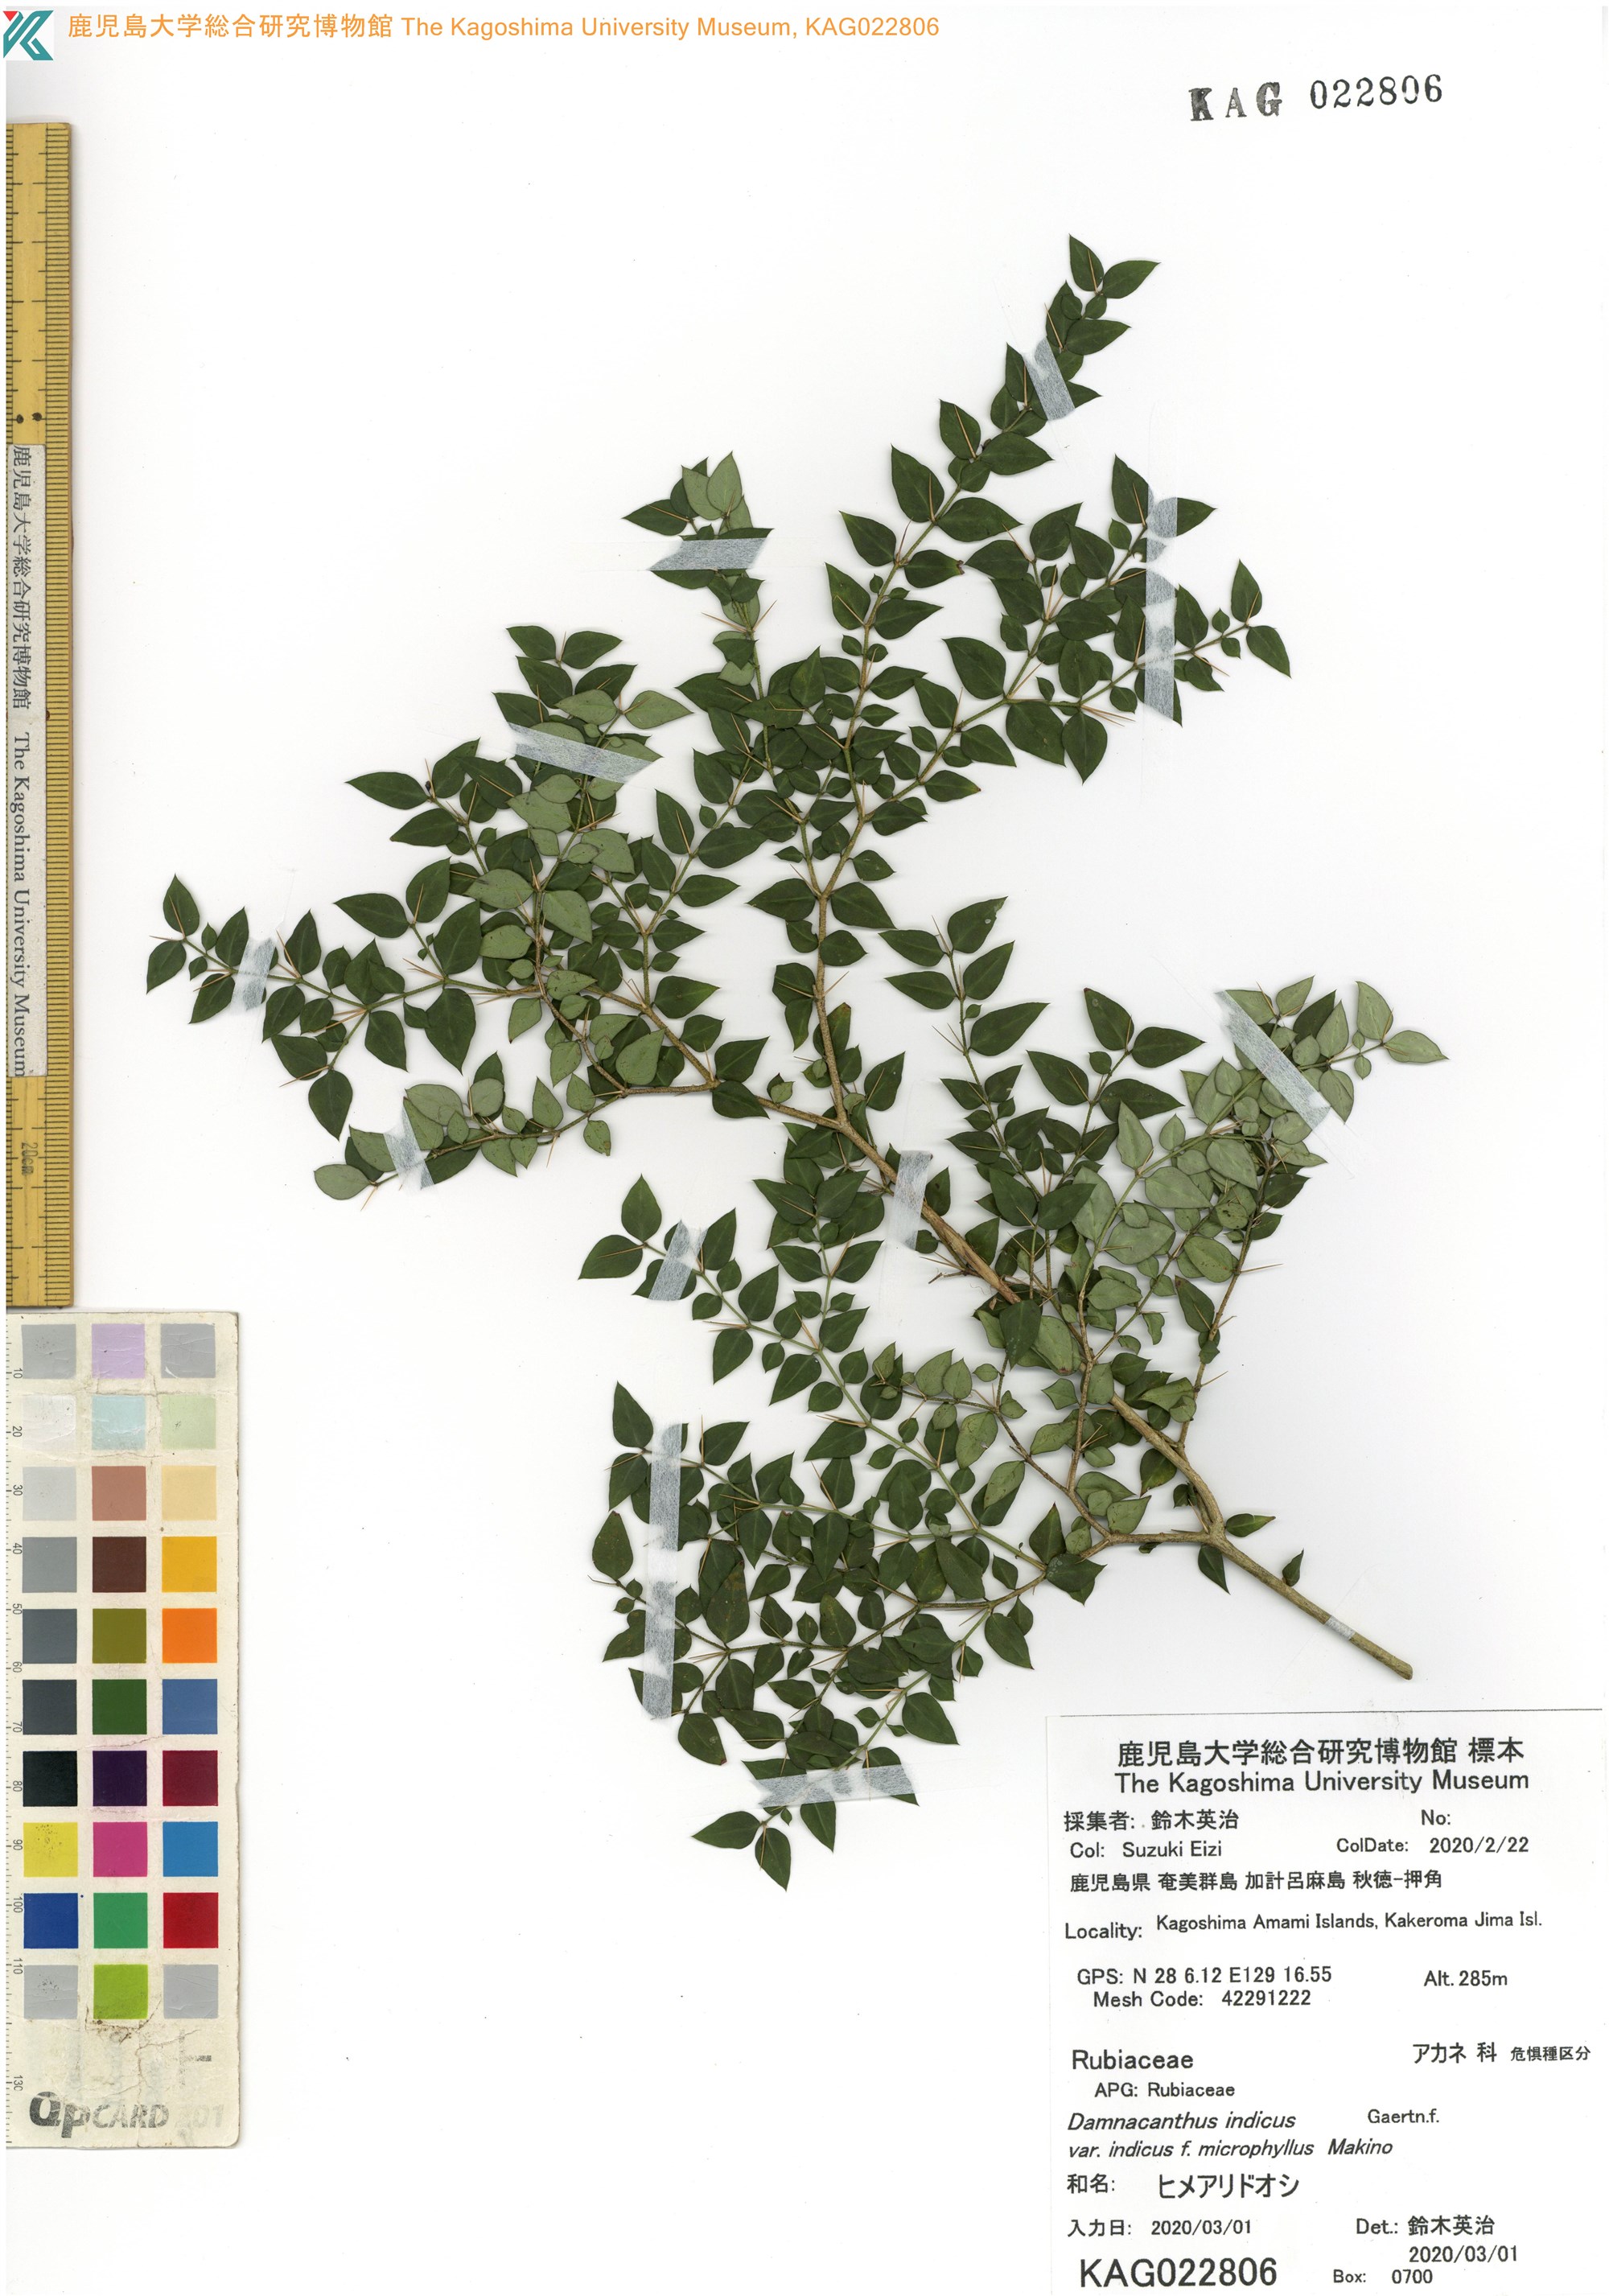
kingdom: Plantae
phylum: Tracheophyta
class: Magnoliopsida
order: Gentianales
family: Rubiaceae
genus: Damnacanthus
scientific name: Damnacanthus indicus
